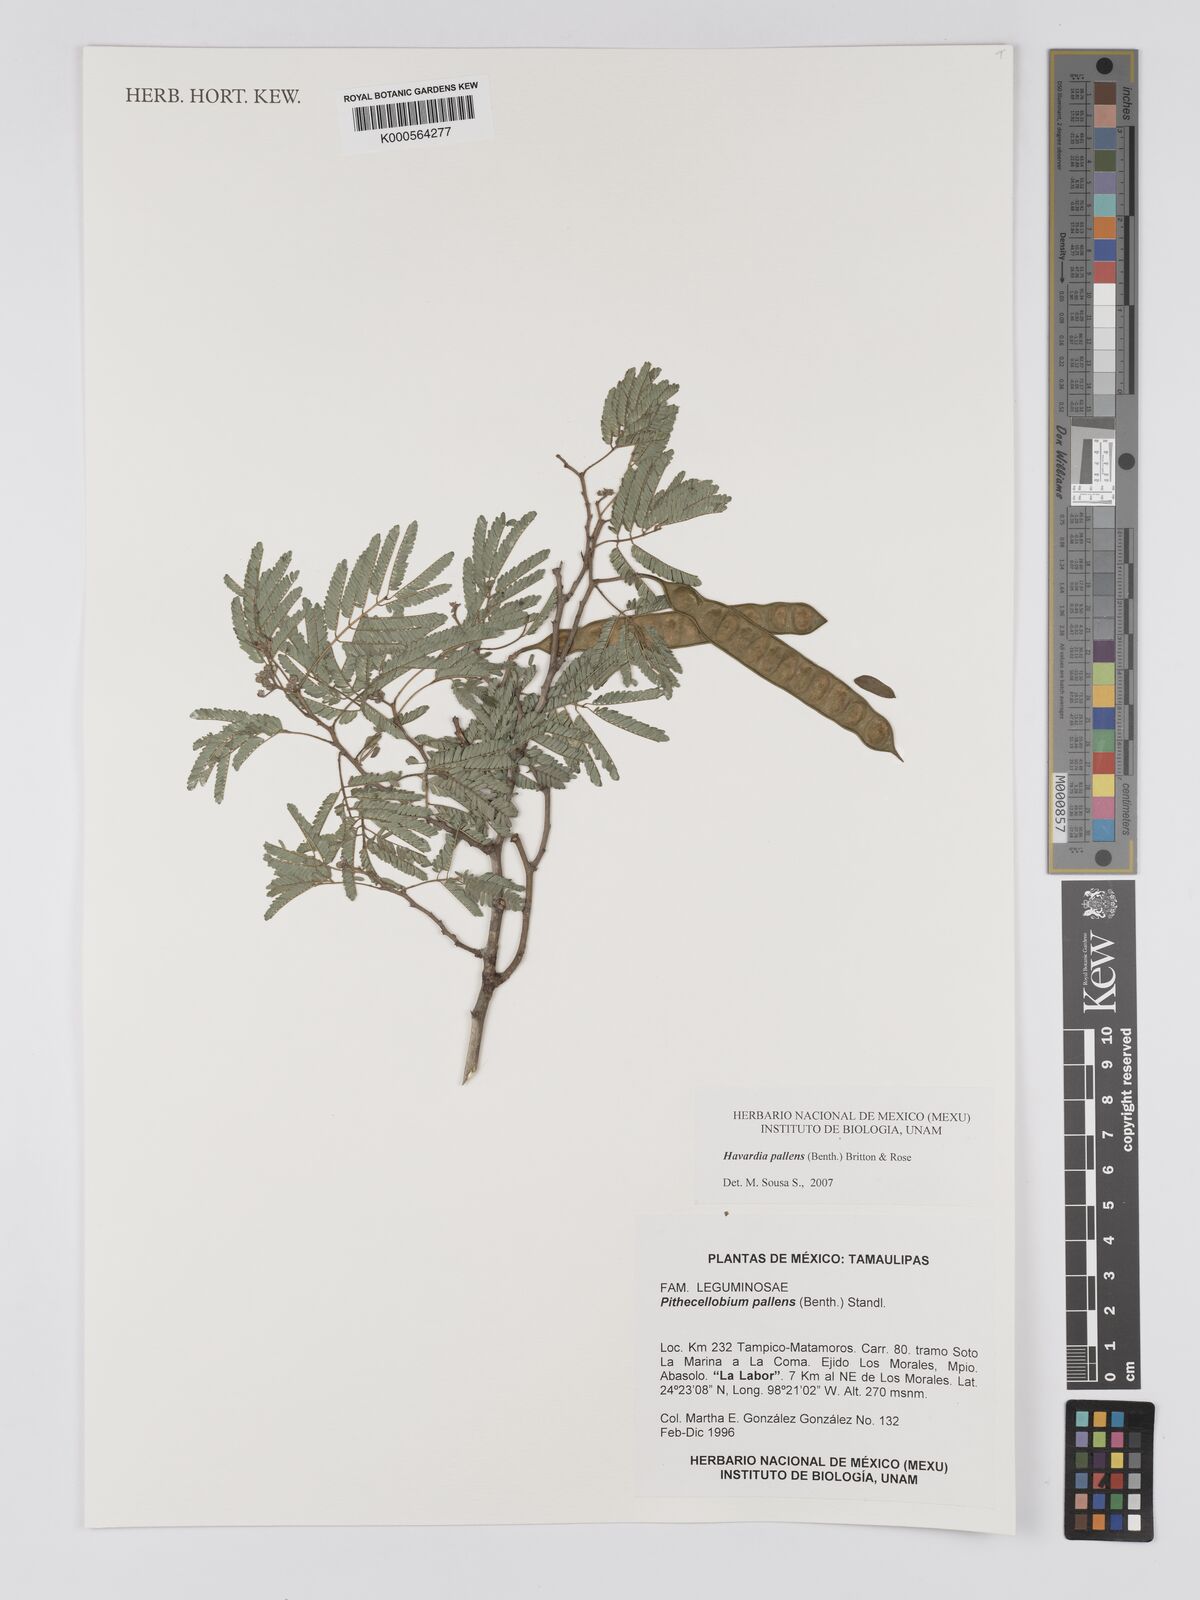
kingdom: Plantae
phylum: Tracheophyta
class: Magnoliopsida
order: Fabales
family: Fabaceae
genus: Havardia
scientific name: Havardia pallens
